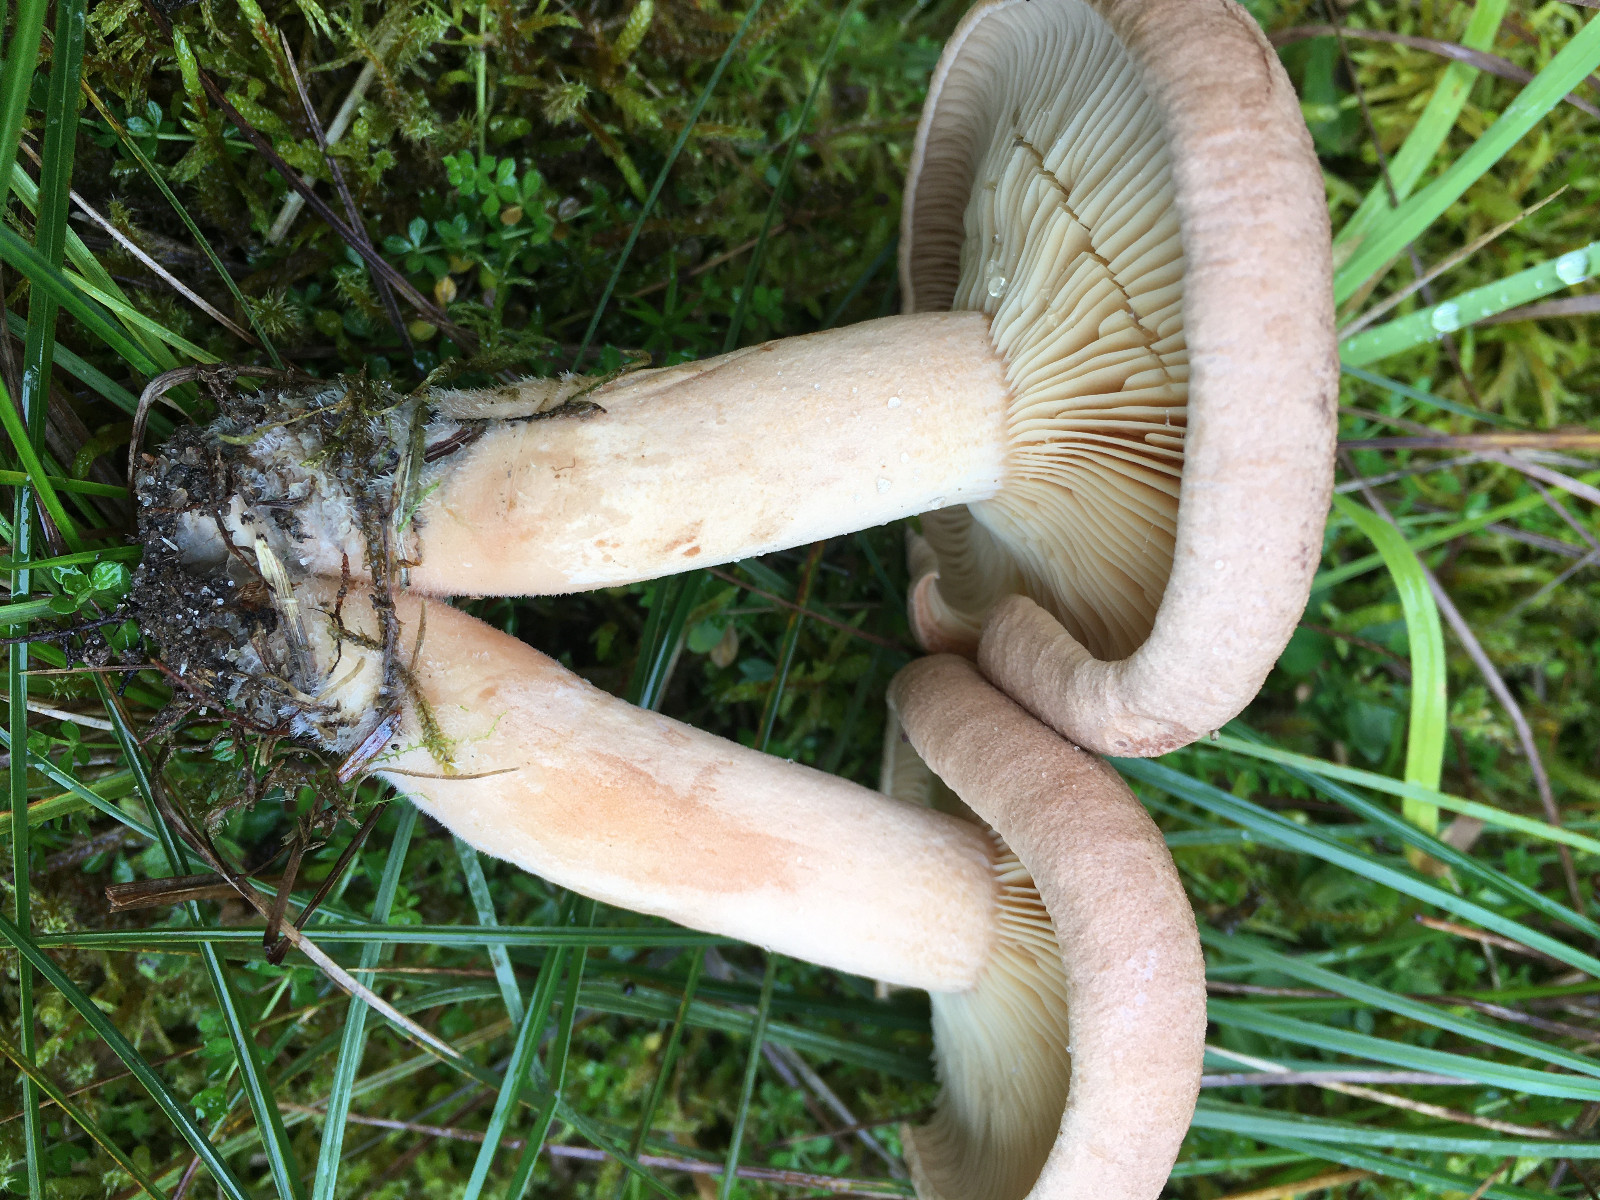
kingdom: Fungi
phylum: Basidiomycota
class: Agaricomycetes
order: Russulales
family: Russulaceae
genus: Lactarius
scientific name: Lactarius helvus
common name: mose-mælkehat
